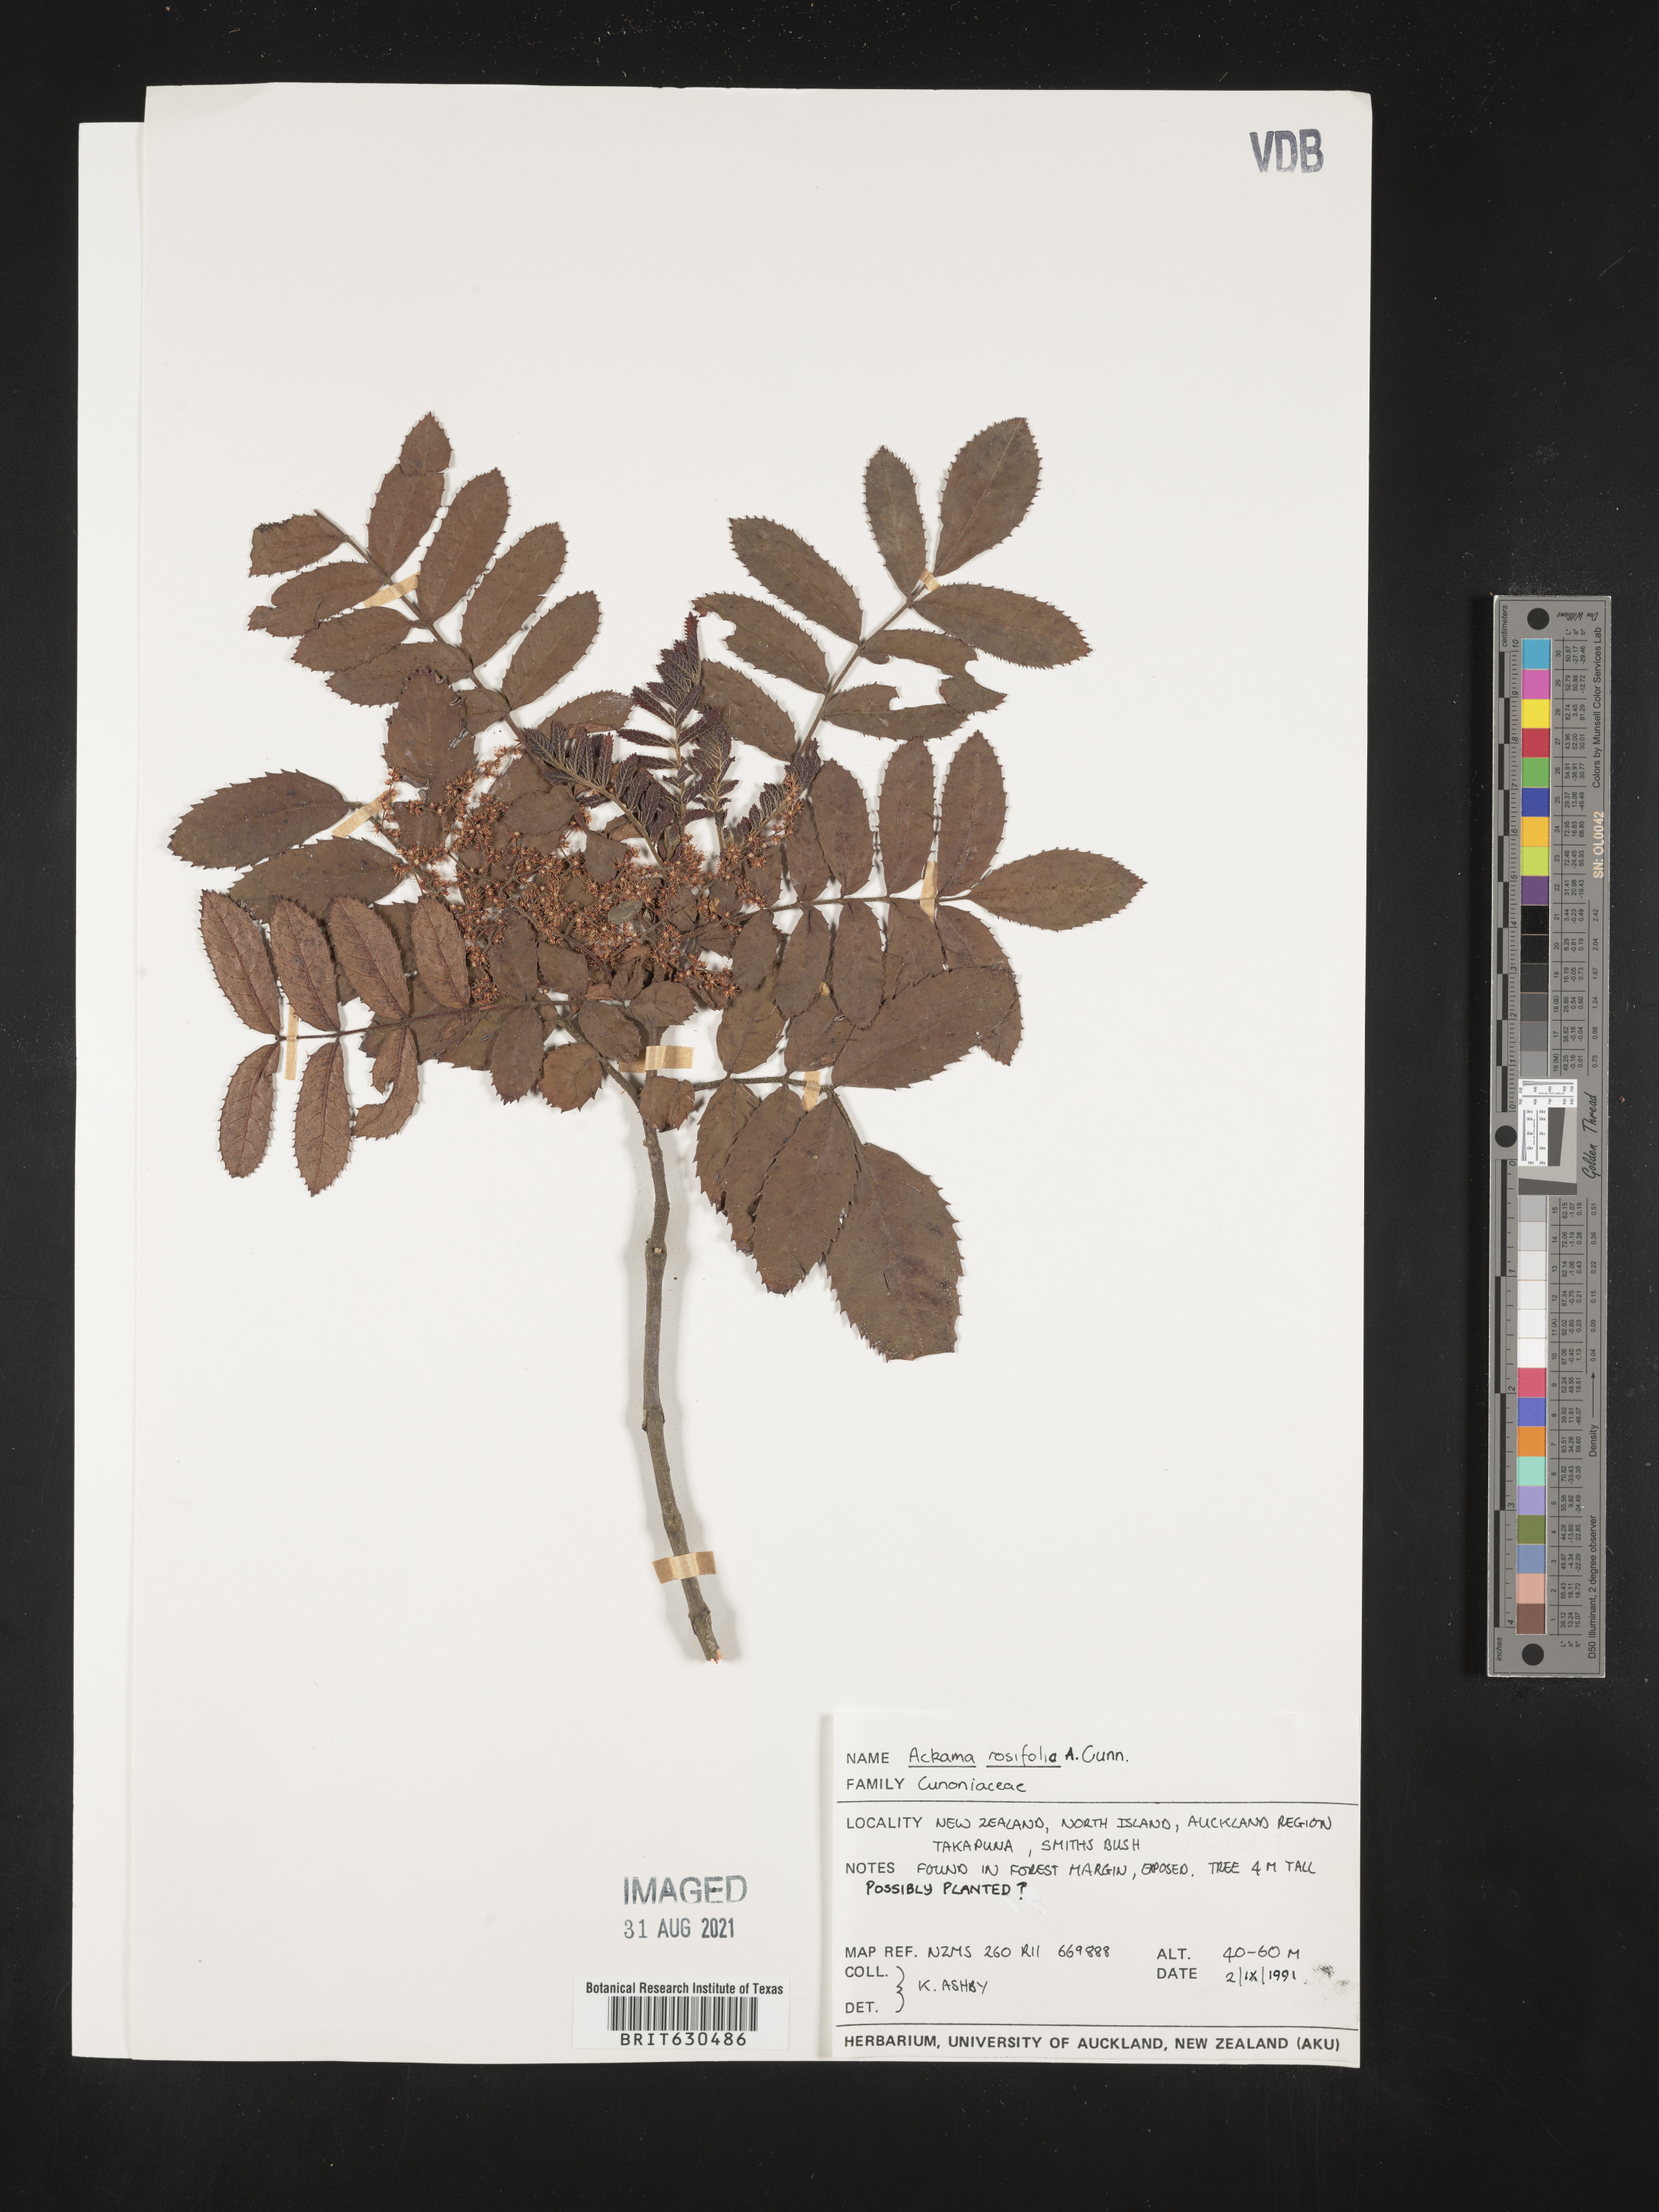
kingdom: Plantae
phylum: Tracheophyta
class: Magnoliopsida
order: Oxalidales
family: Cunoniaceae
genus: Ackama
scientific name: Ackama rosifolia
